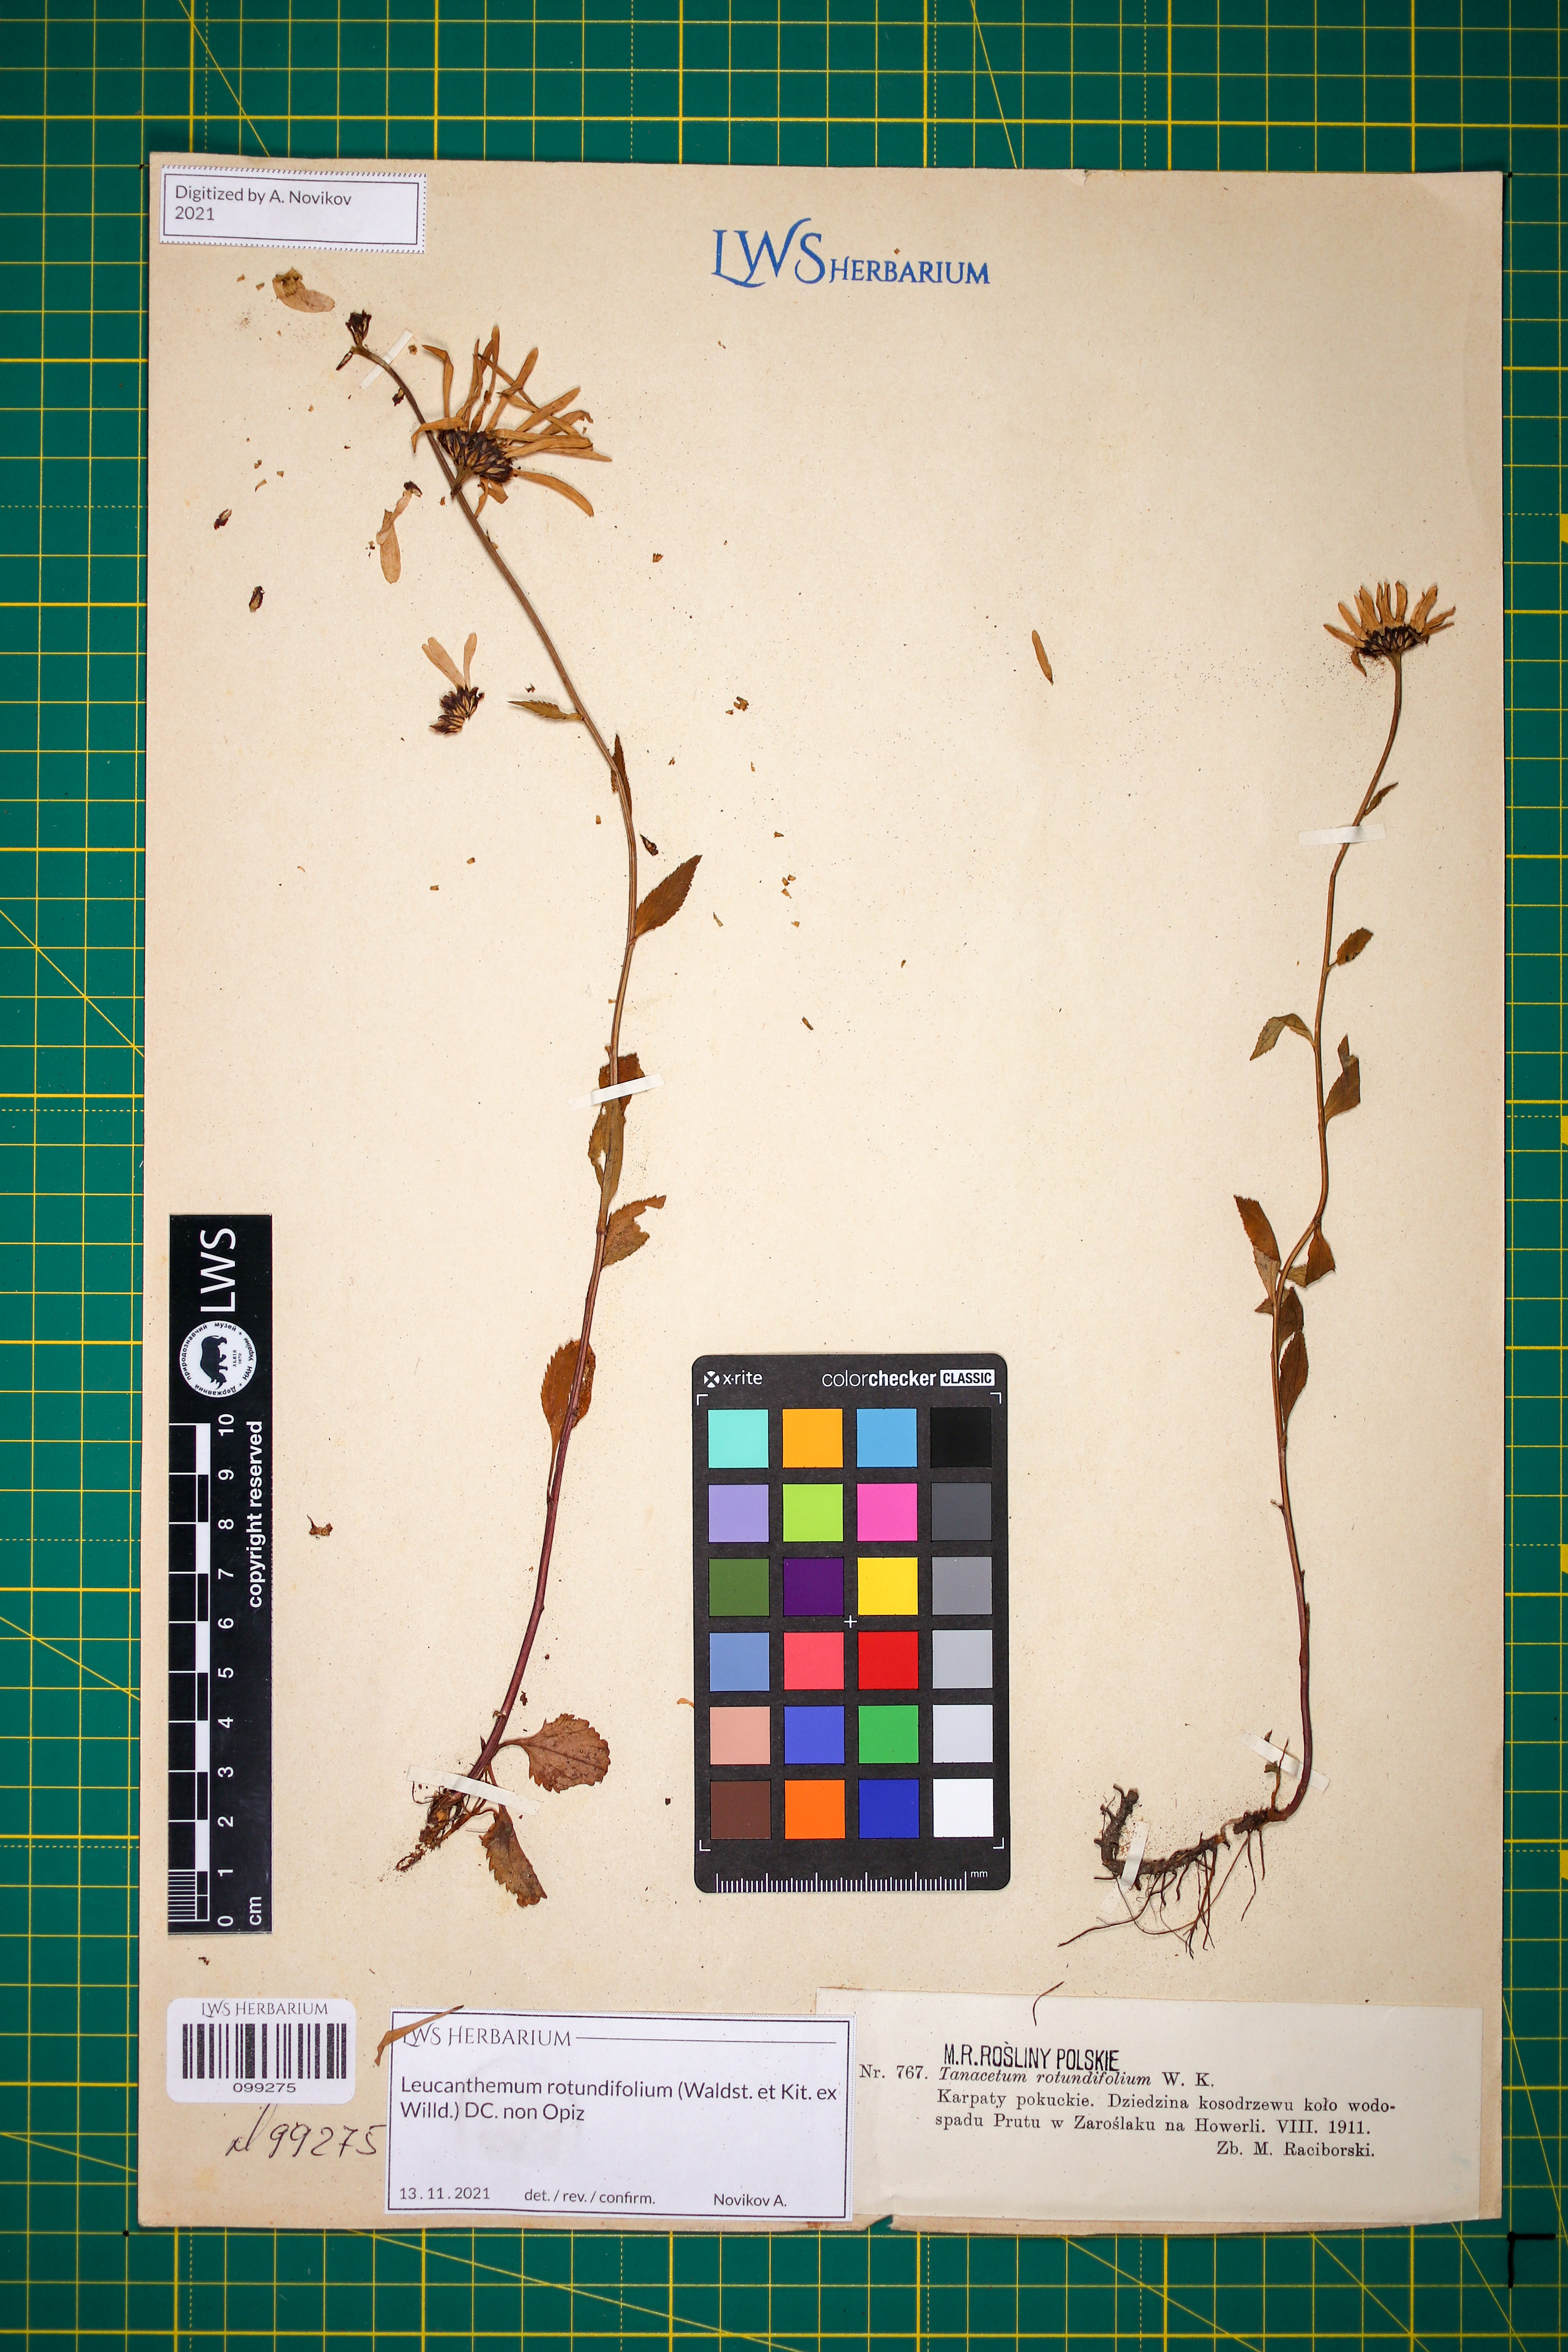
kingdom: Plantae
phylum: Tracheophyta
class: Magnoliopsida
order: Asterales
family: Asteraceae
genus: Leucanthemum
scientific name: Leucanthemum rotundifolium
